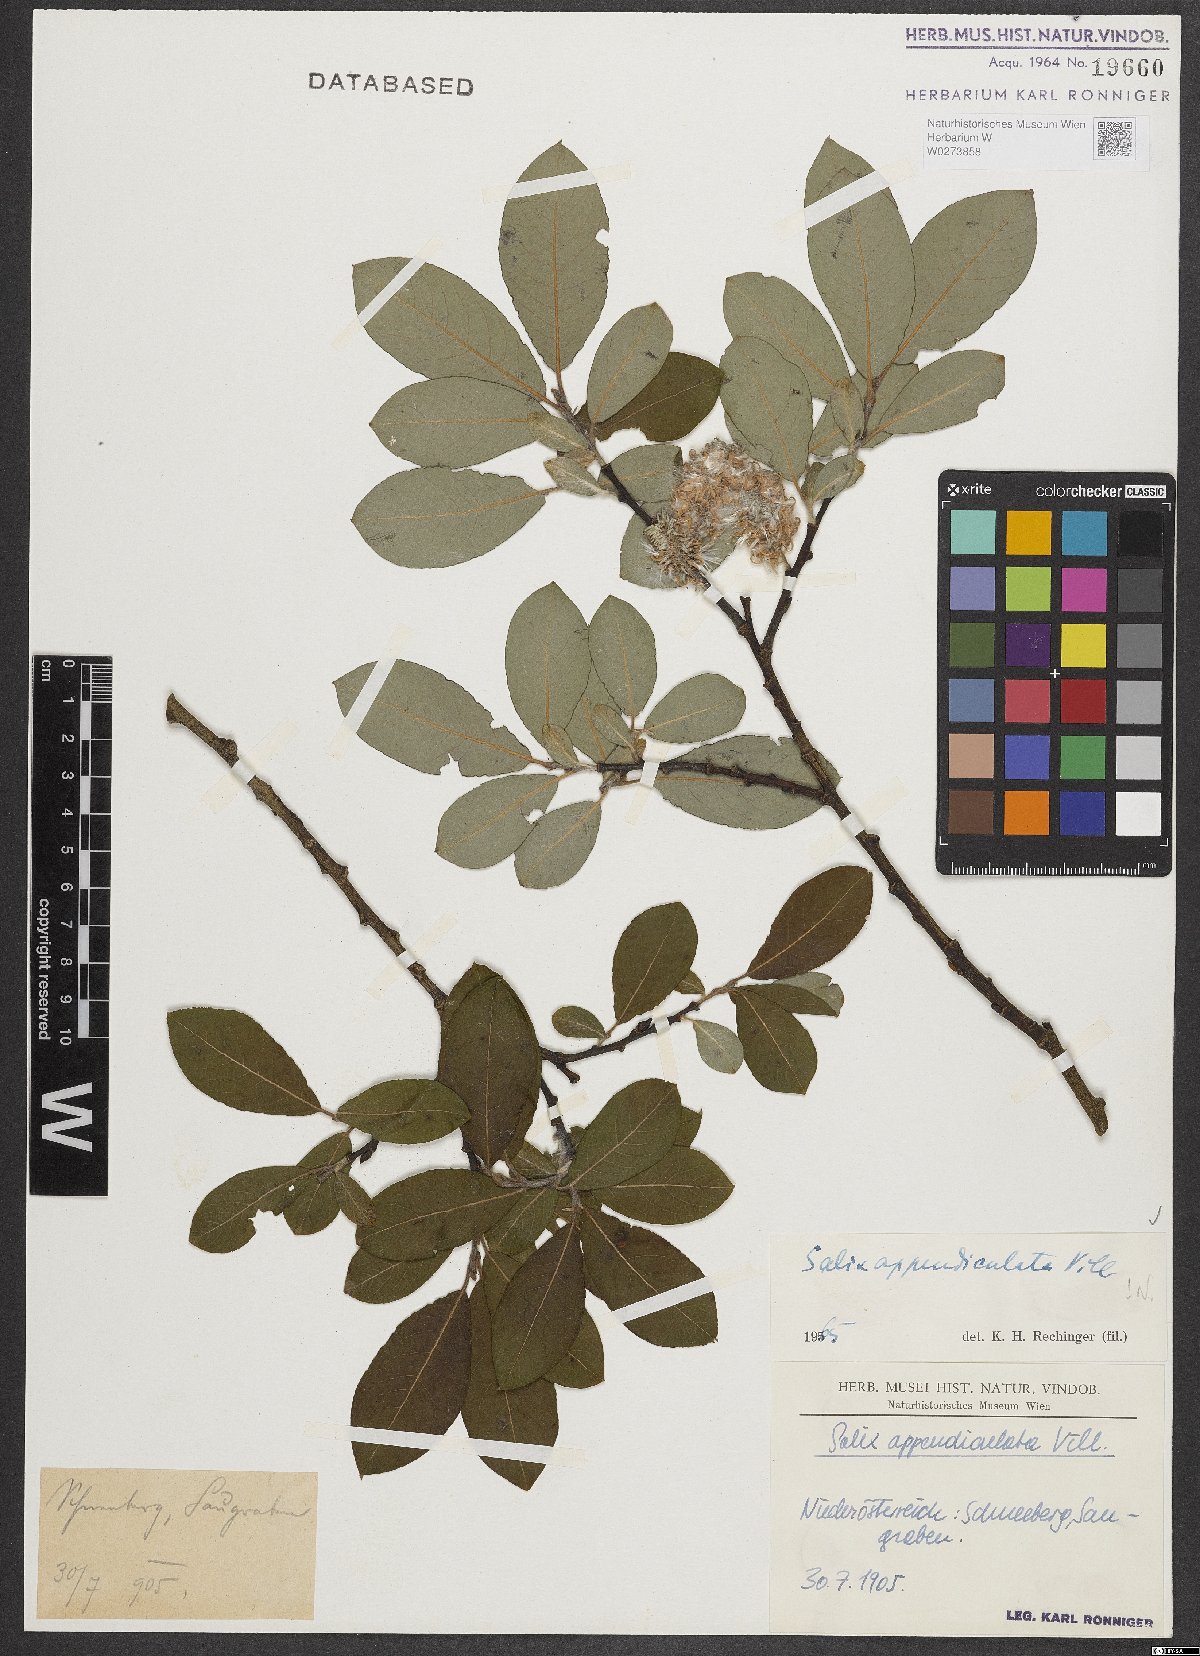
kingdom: Plantae
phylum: Tracheophyta
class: Magnoliopsida
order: Malpighiales
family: Salicaceae
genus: Salix
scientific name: Salix appendiculata
